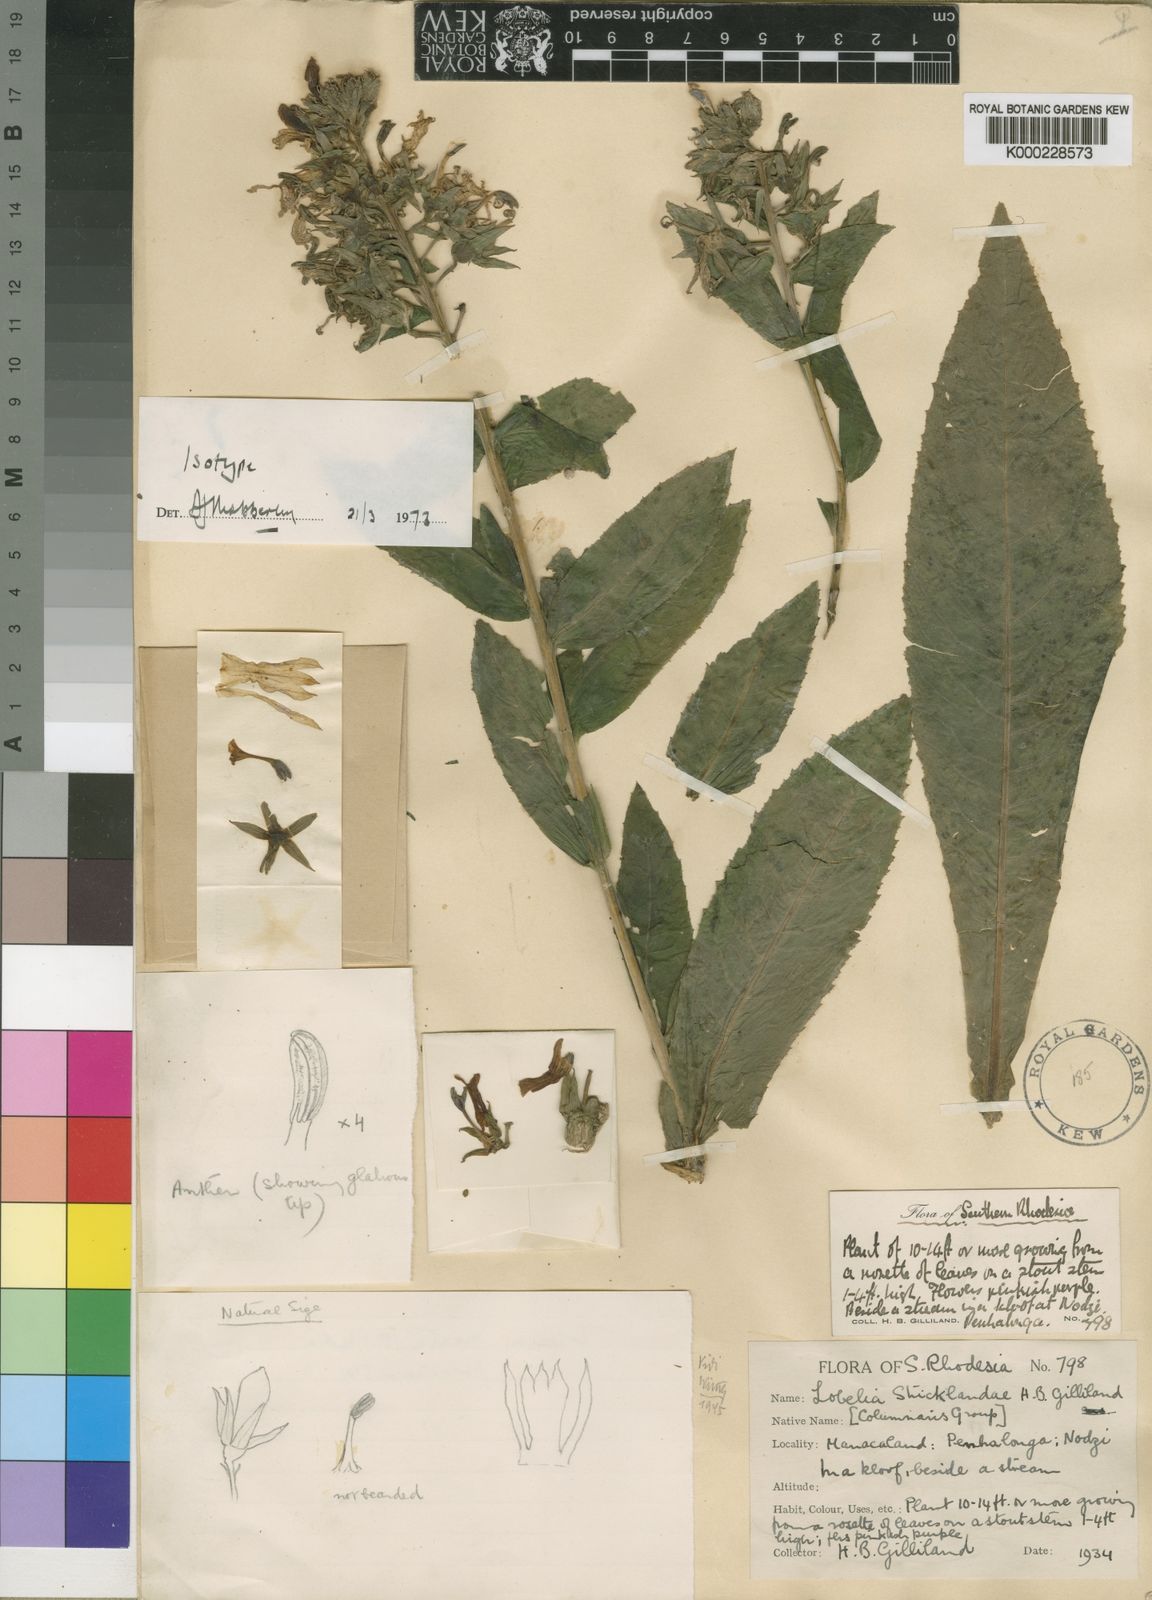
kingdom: Plantae
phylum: Tracheophyta
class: Magnoliopsida
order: Asterales
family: Campanulaceae
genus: Lobelia
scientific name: Lobelia stricklandiae
